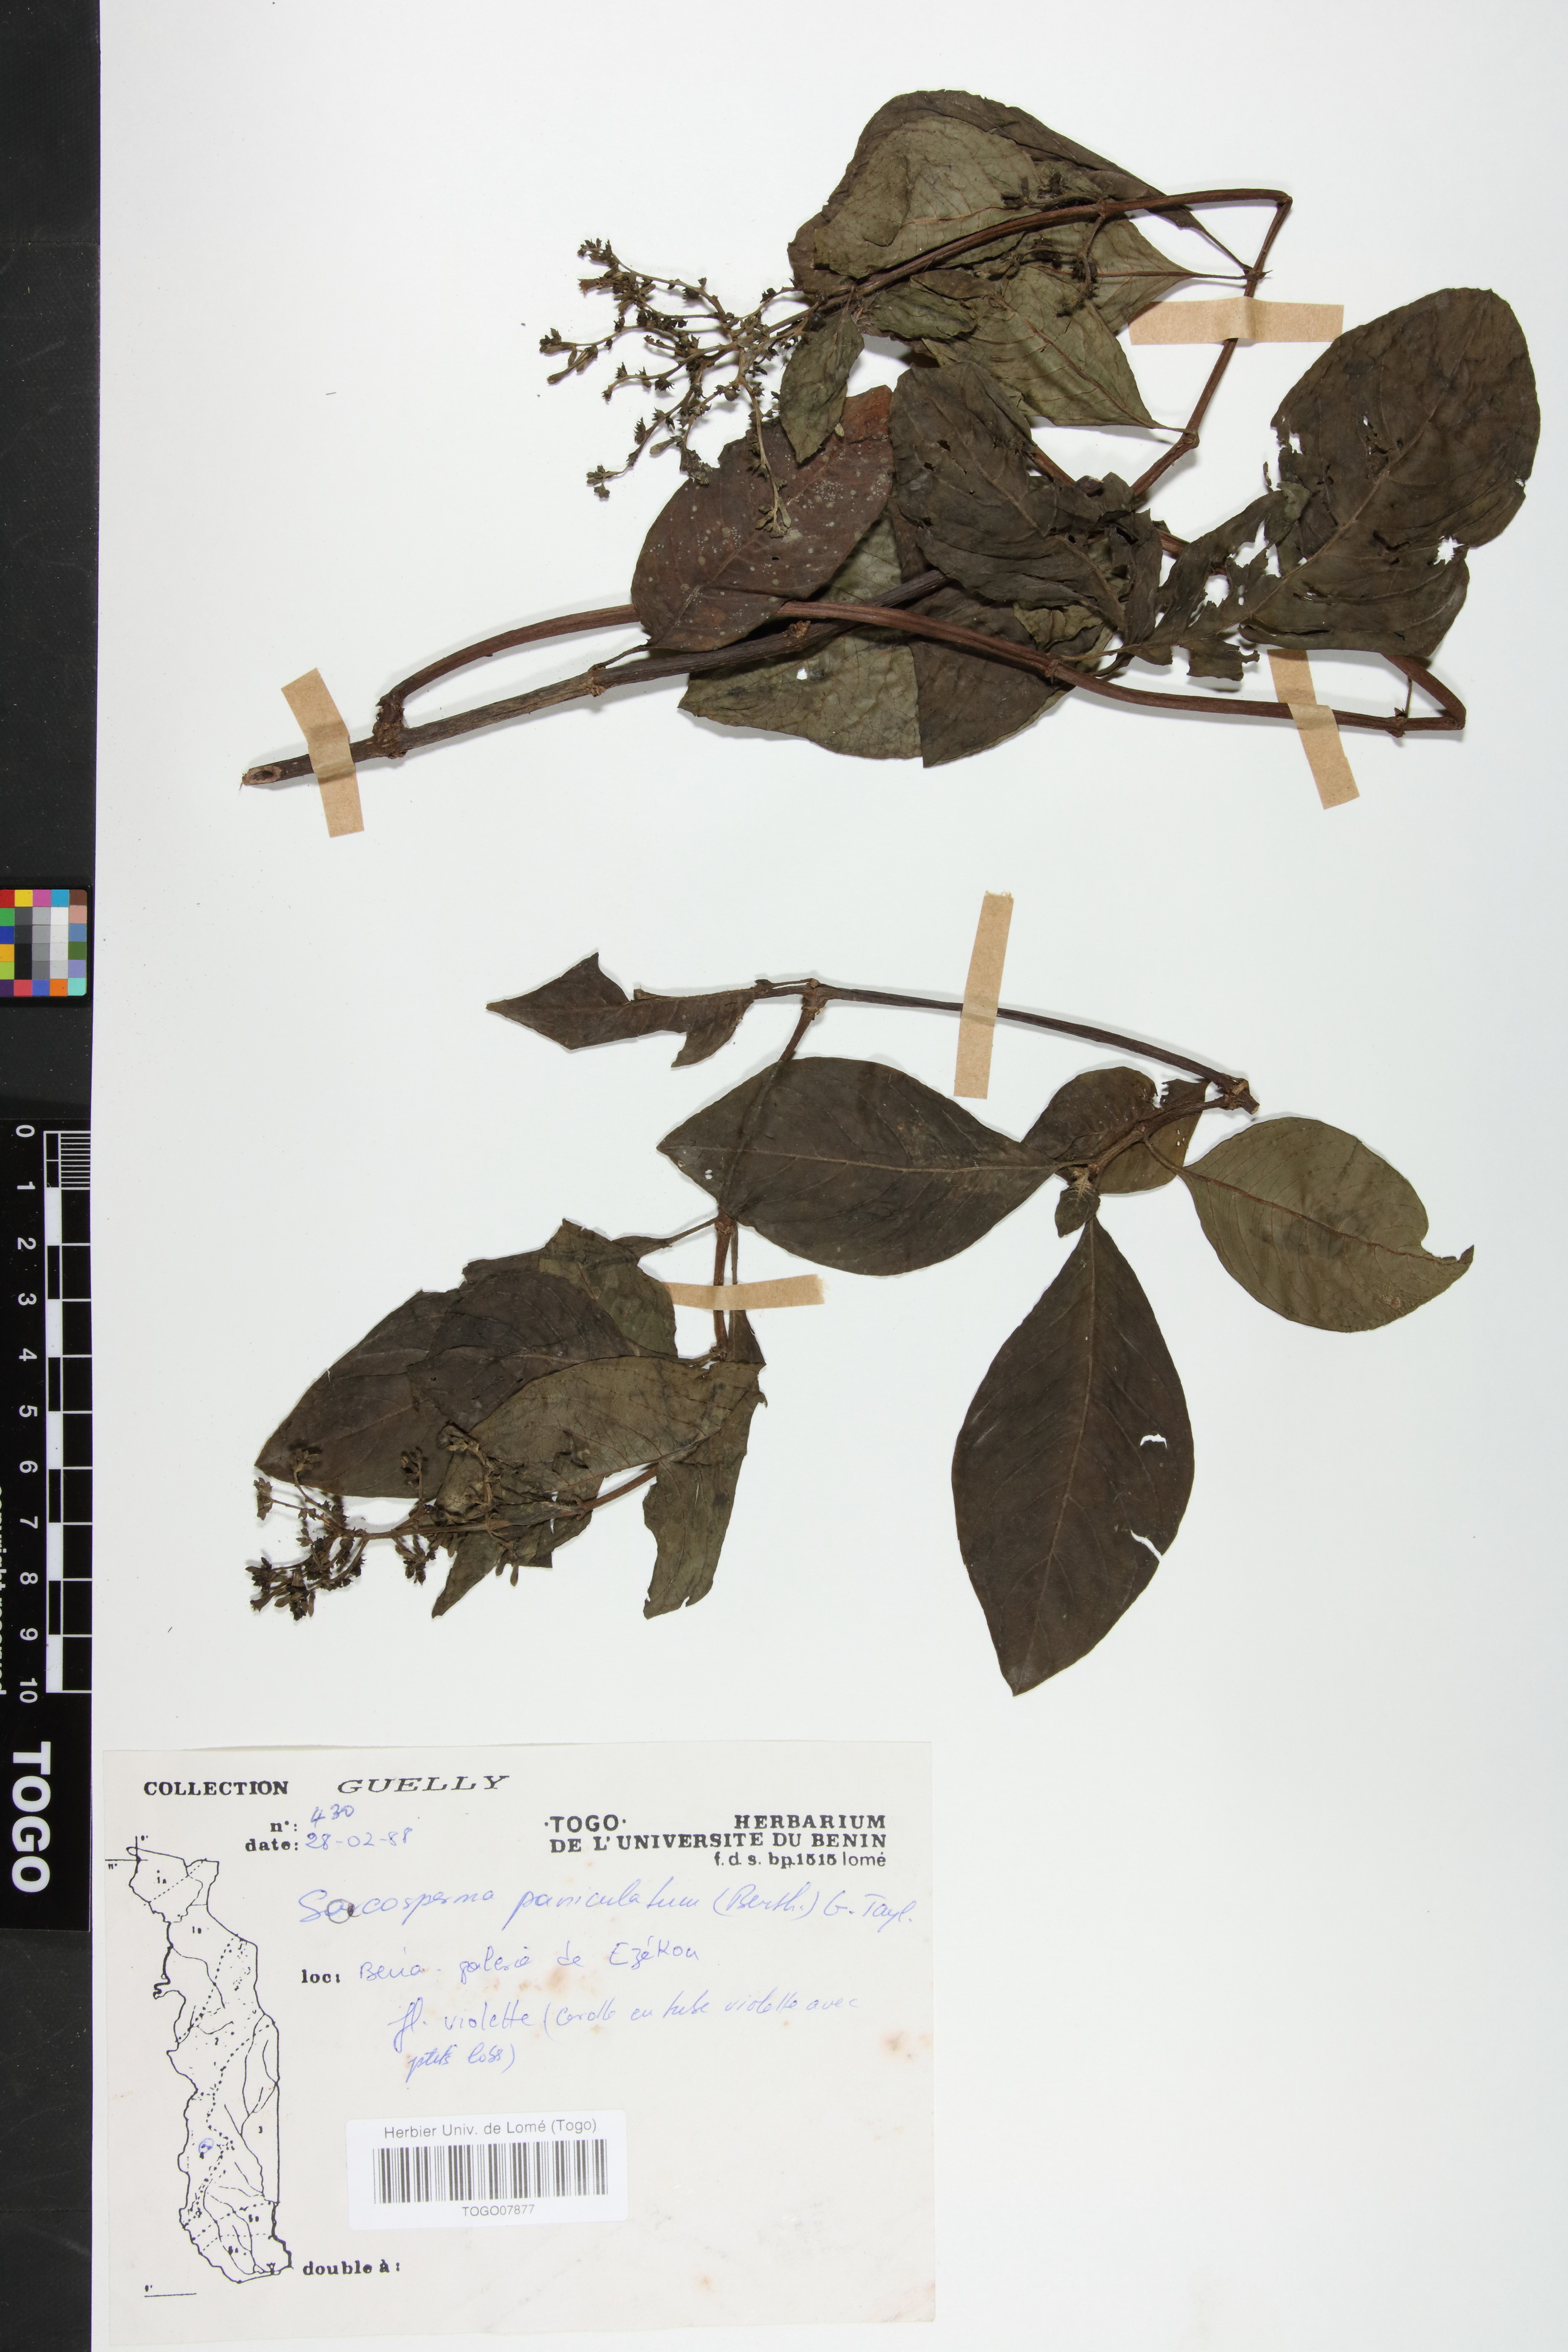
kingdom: Plantae
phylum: Tracheophyta
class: Magnoliopsida
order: Gentianales
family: Rubiaceae
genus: Sacosperma
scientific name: Sacosperma paniculatum
